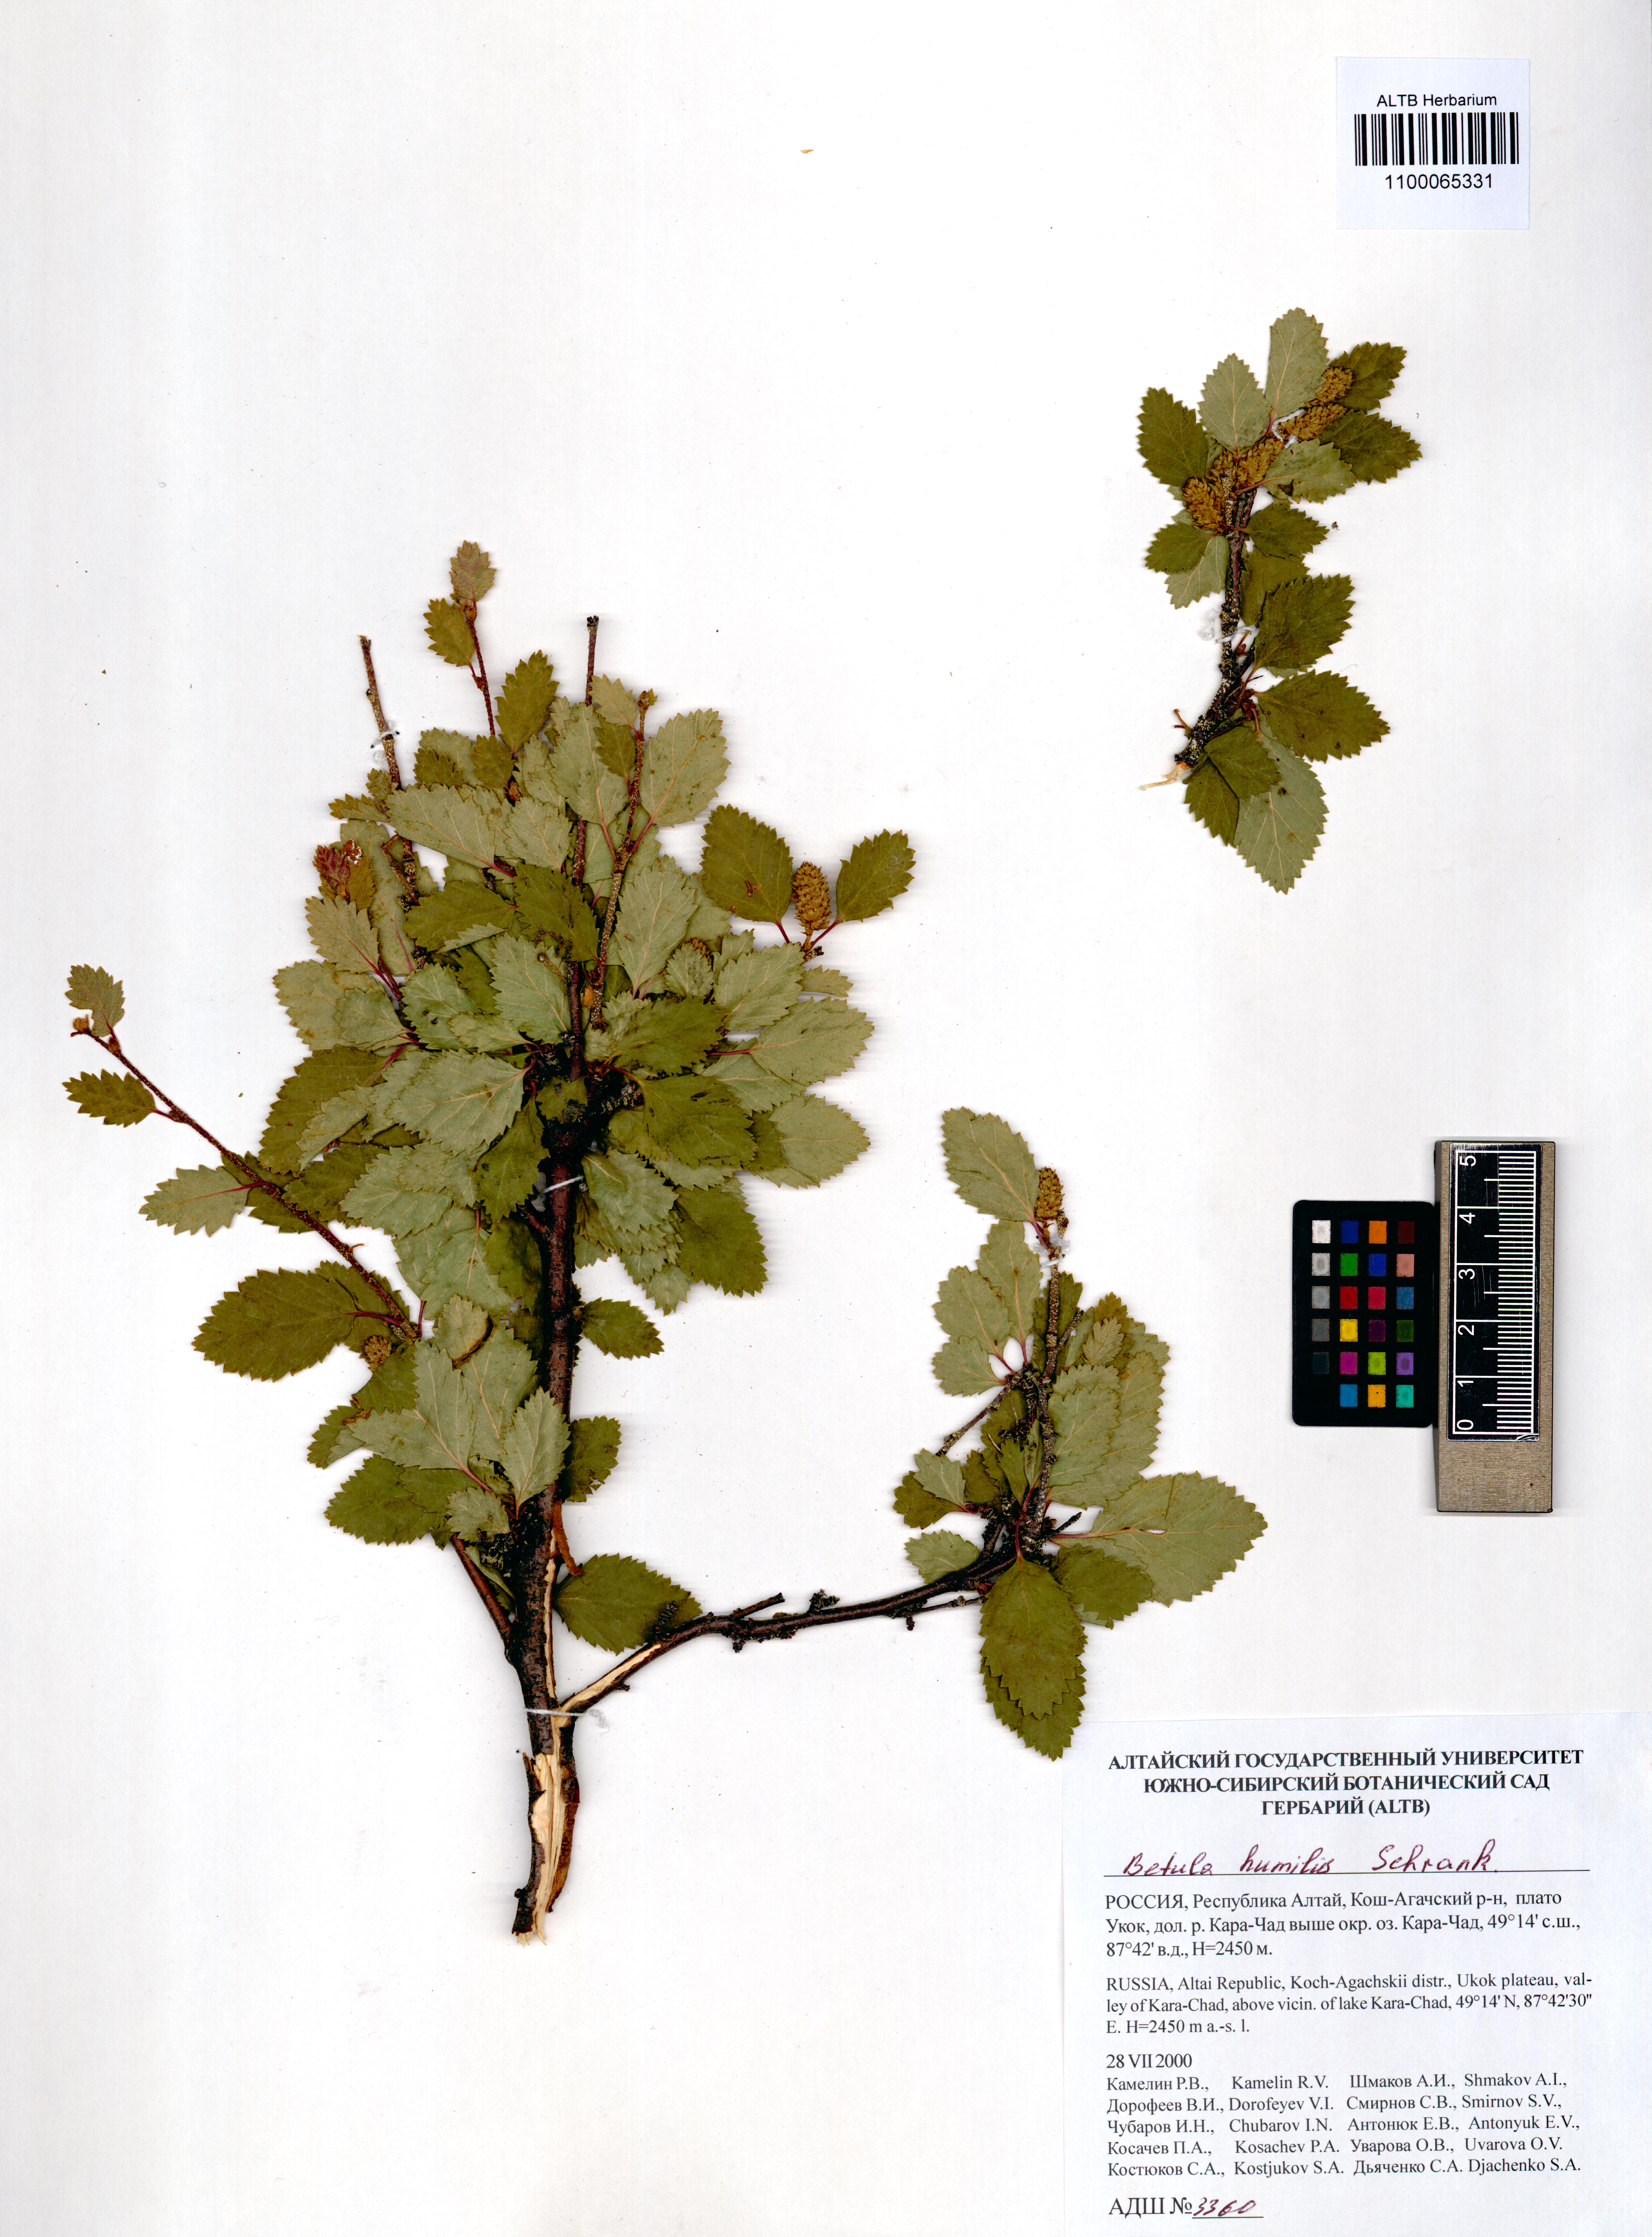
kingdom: Plantae
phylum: Tracheophyta
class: Magnoliopsida
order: Fagales
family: Betulaceae
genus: Betula
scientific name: Betula humilis
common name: Shrubby birch
